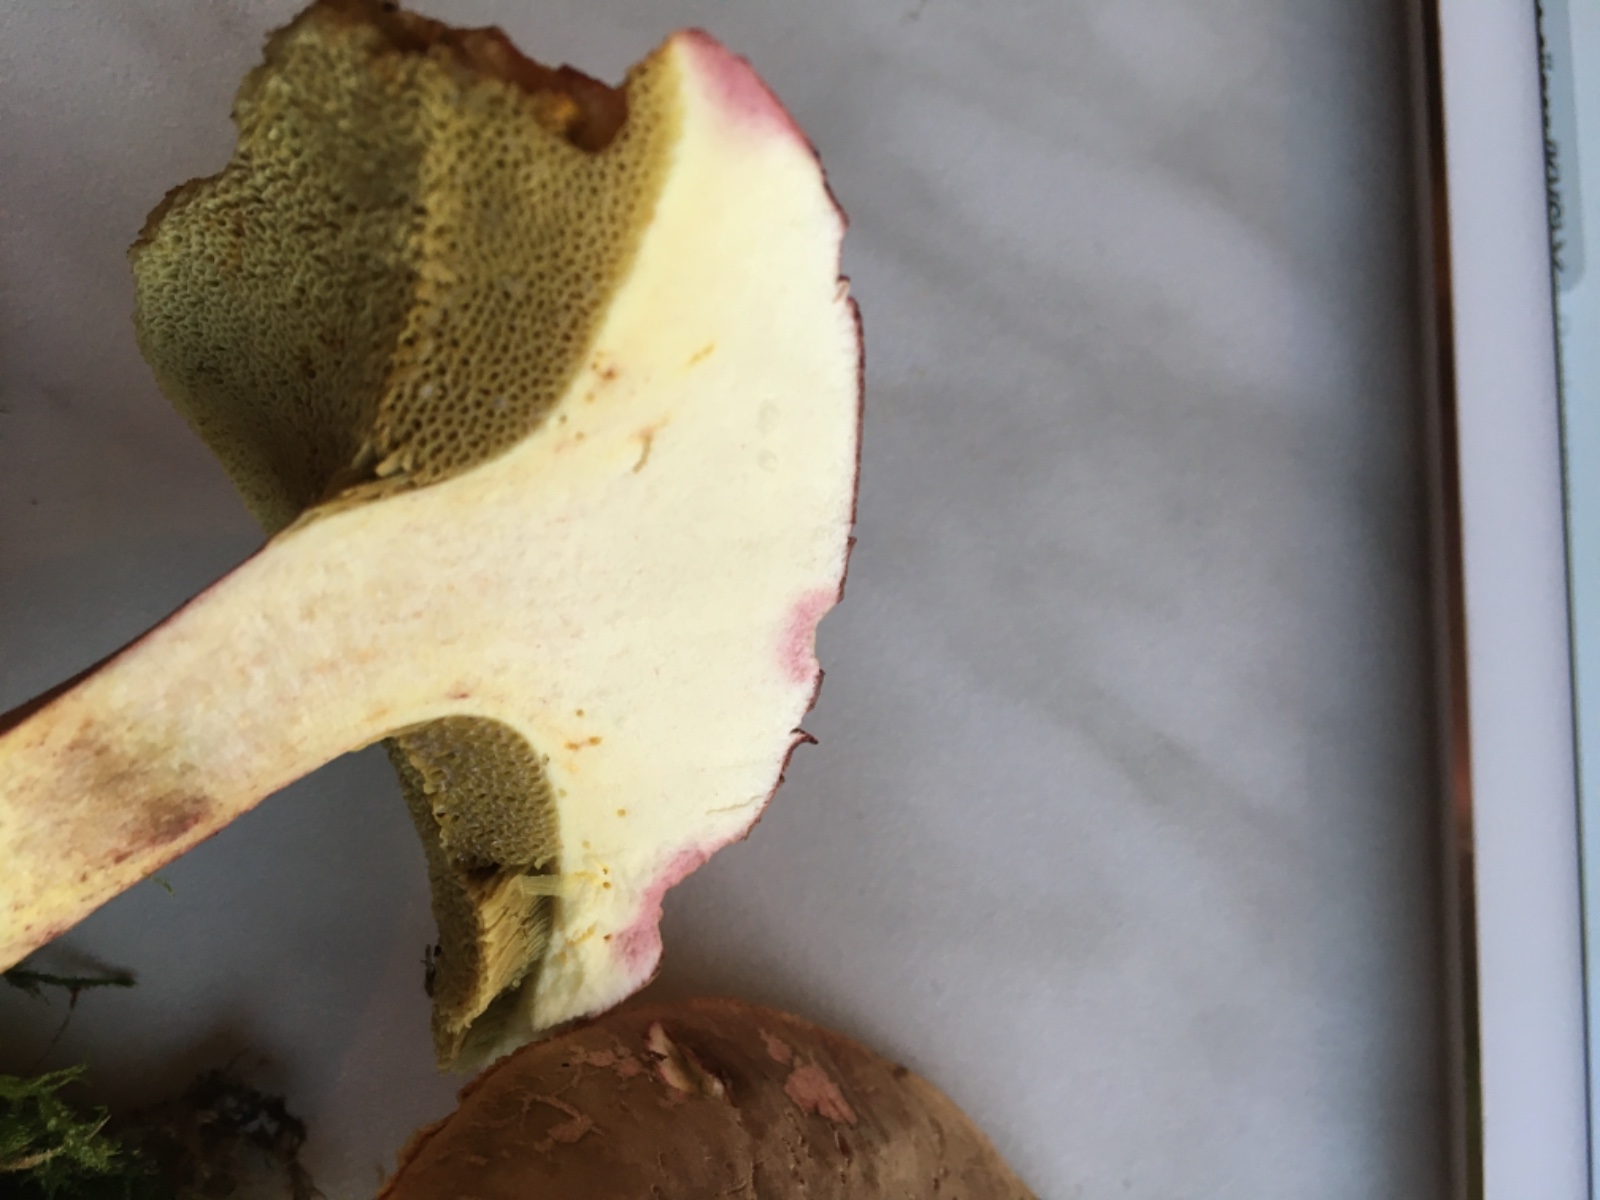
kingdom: Fungi
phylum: Basidiomycota
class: Agaricomycetes
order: Boletales
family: Boletaceae
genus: Xerocomellus
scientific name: Xerocomellus chrysenteron
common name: rødsprukken rørhat
